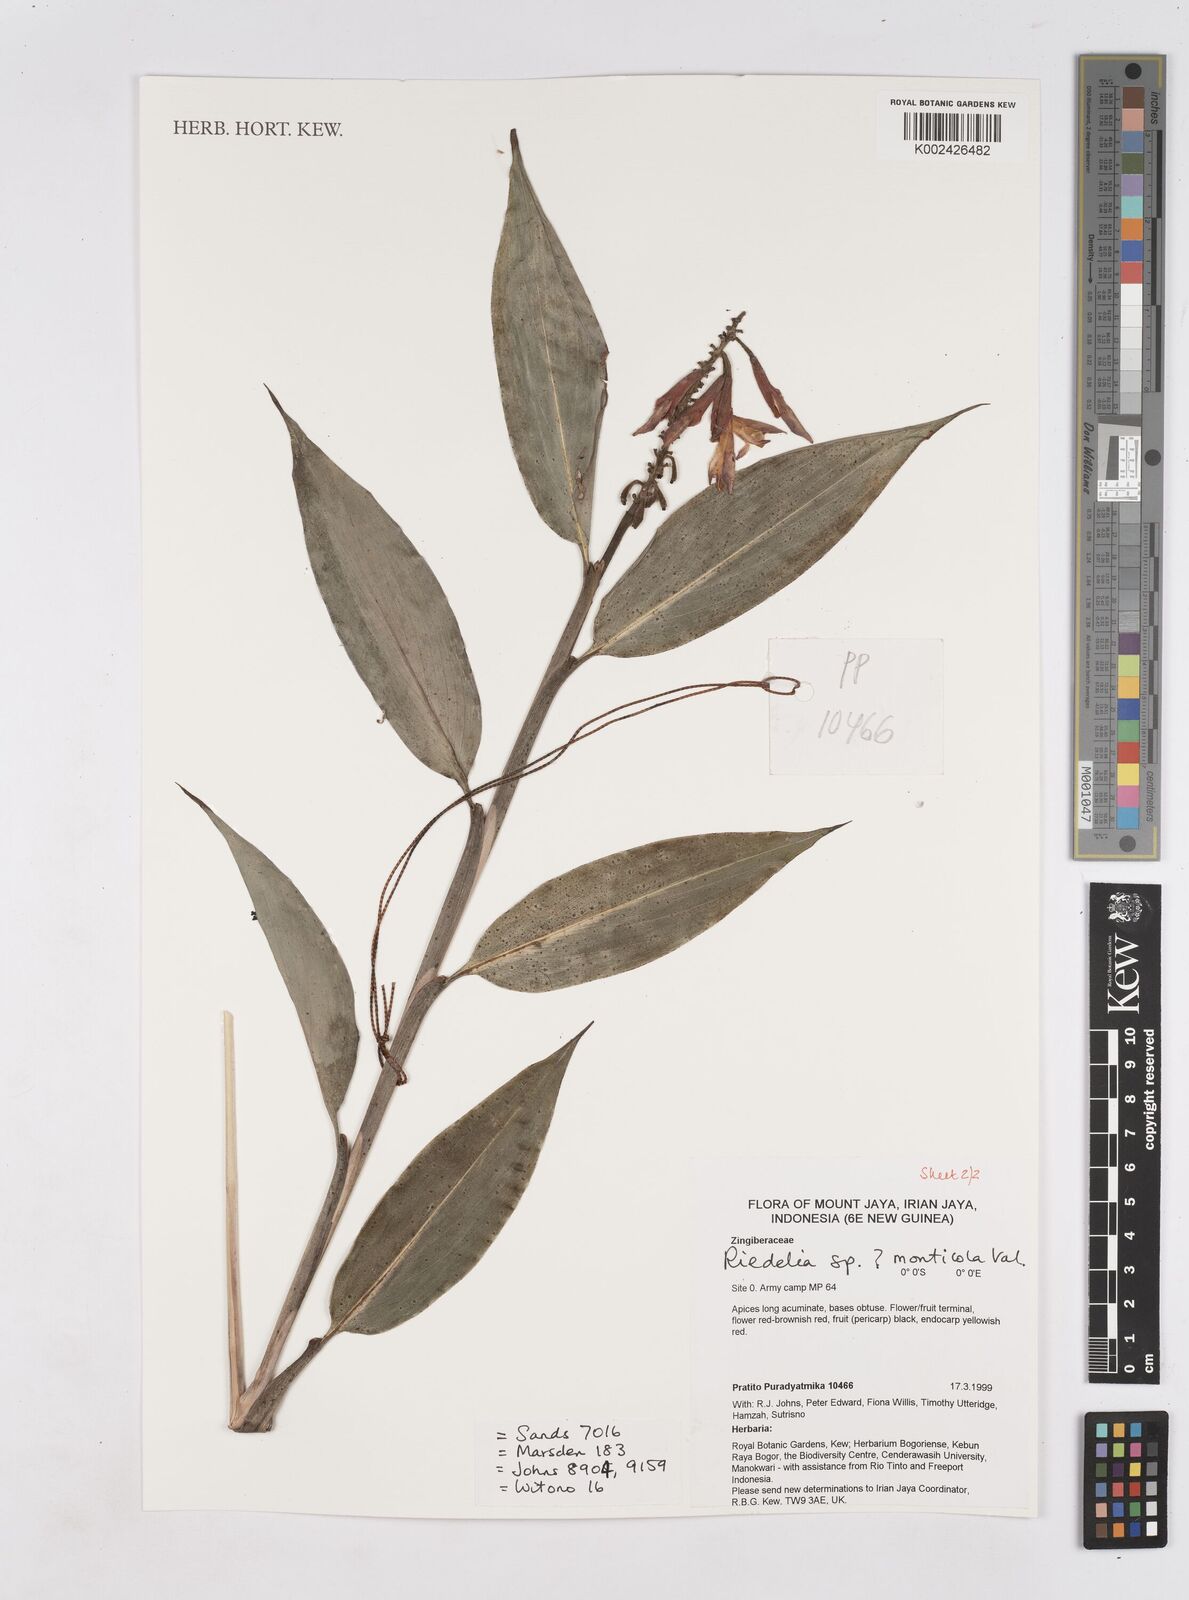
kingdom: Plantae
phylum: Tracheophyta
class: Liliopsida
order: Zingiberales
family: Zingiberaceae
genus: Riedelia
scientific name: Riedelia monticola
